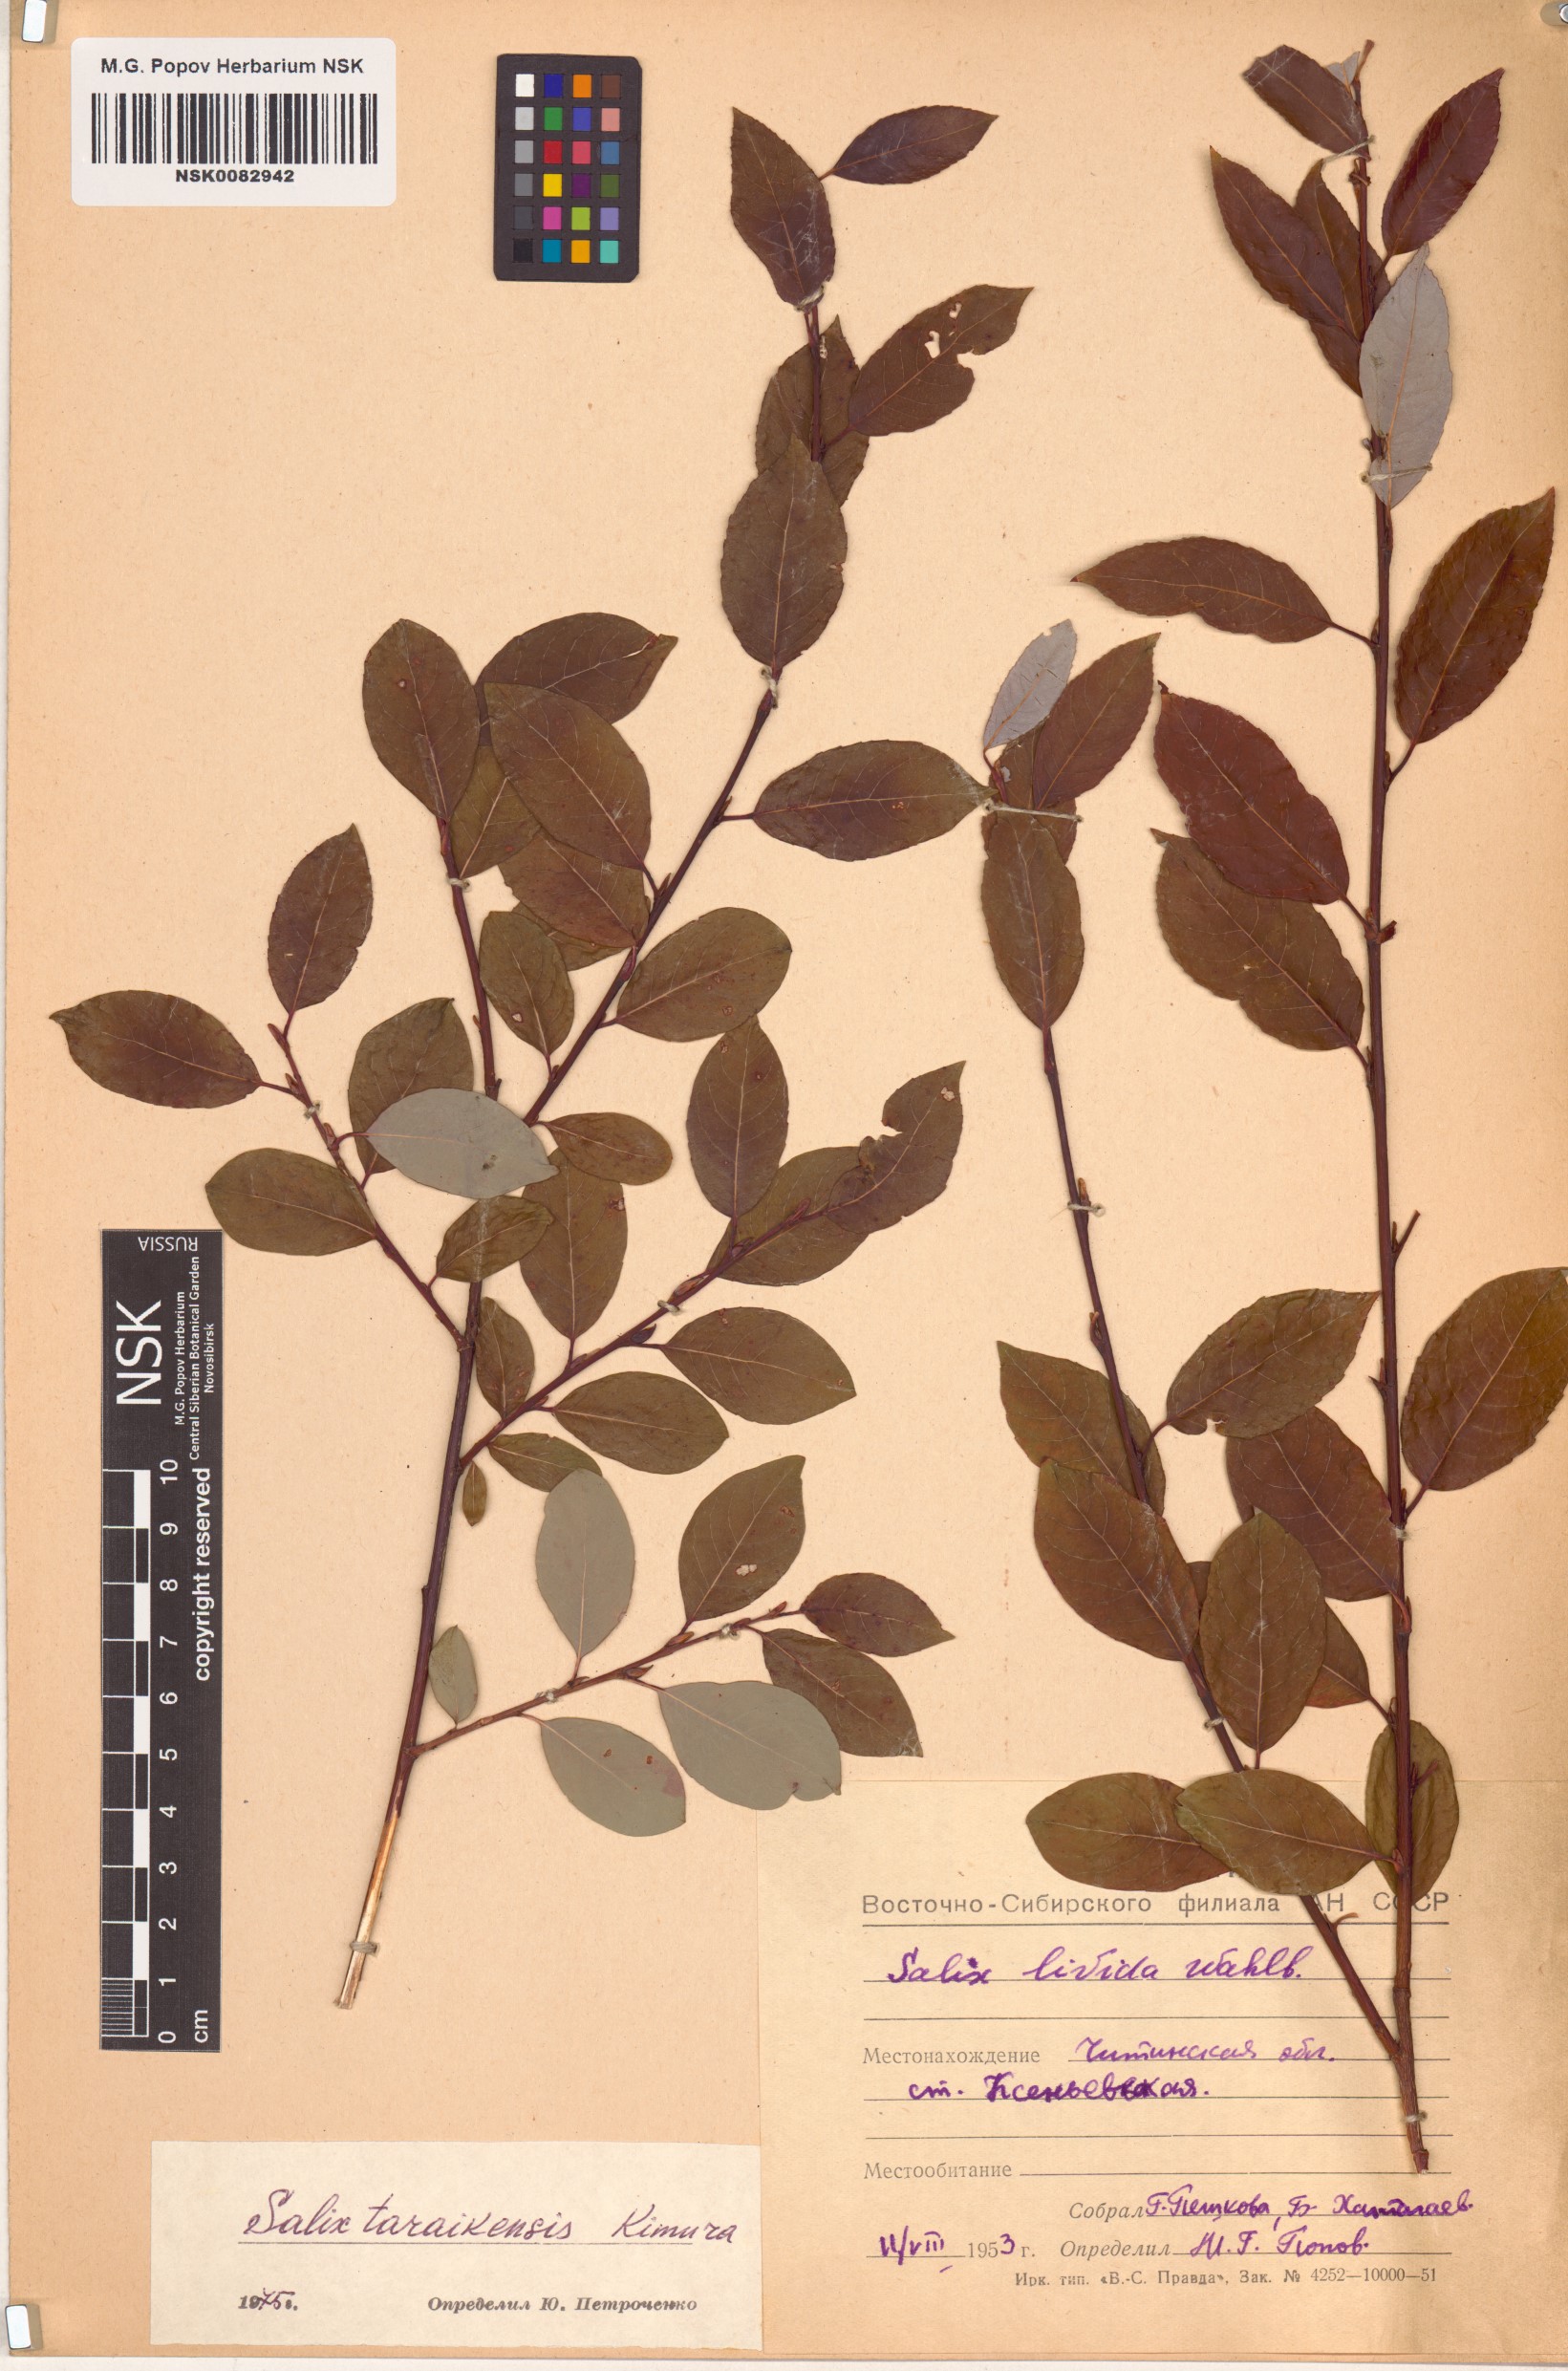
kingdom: Plantae
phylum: Tracheophyta
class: Magnoliopsida
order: Malpighiales
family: Salicaceae
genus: Salix
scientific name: Salix taraikensis
